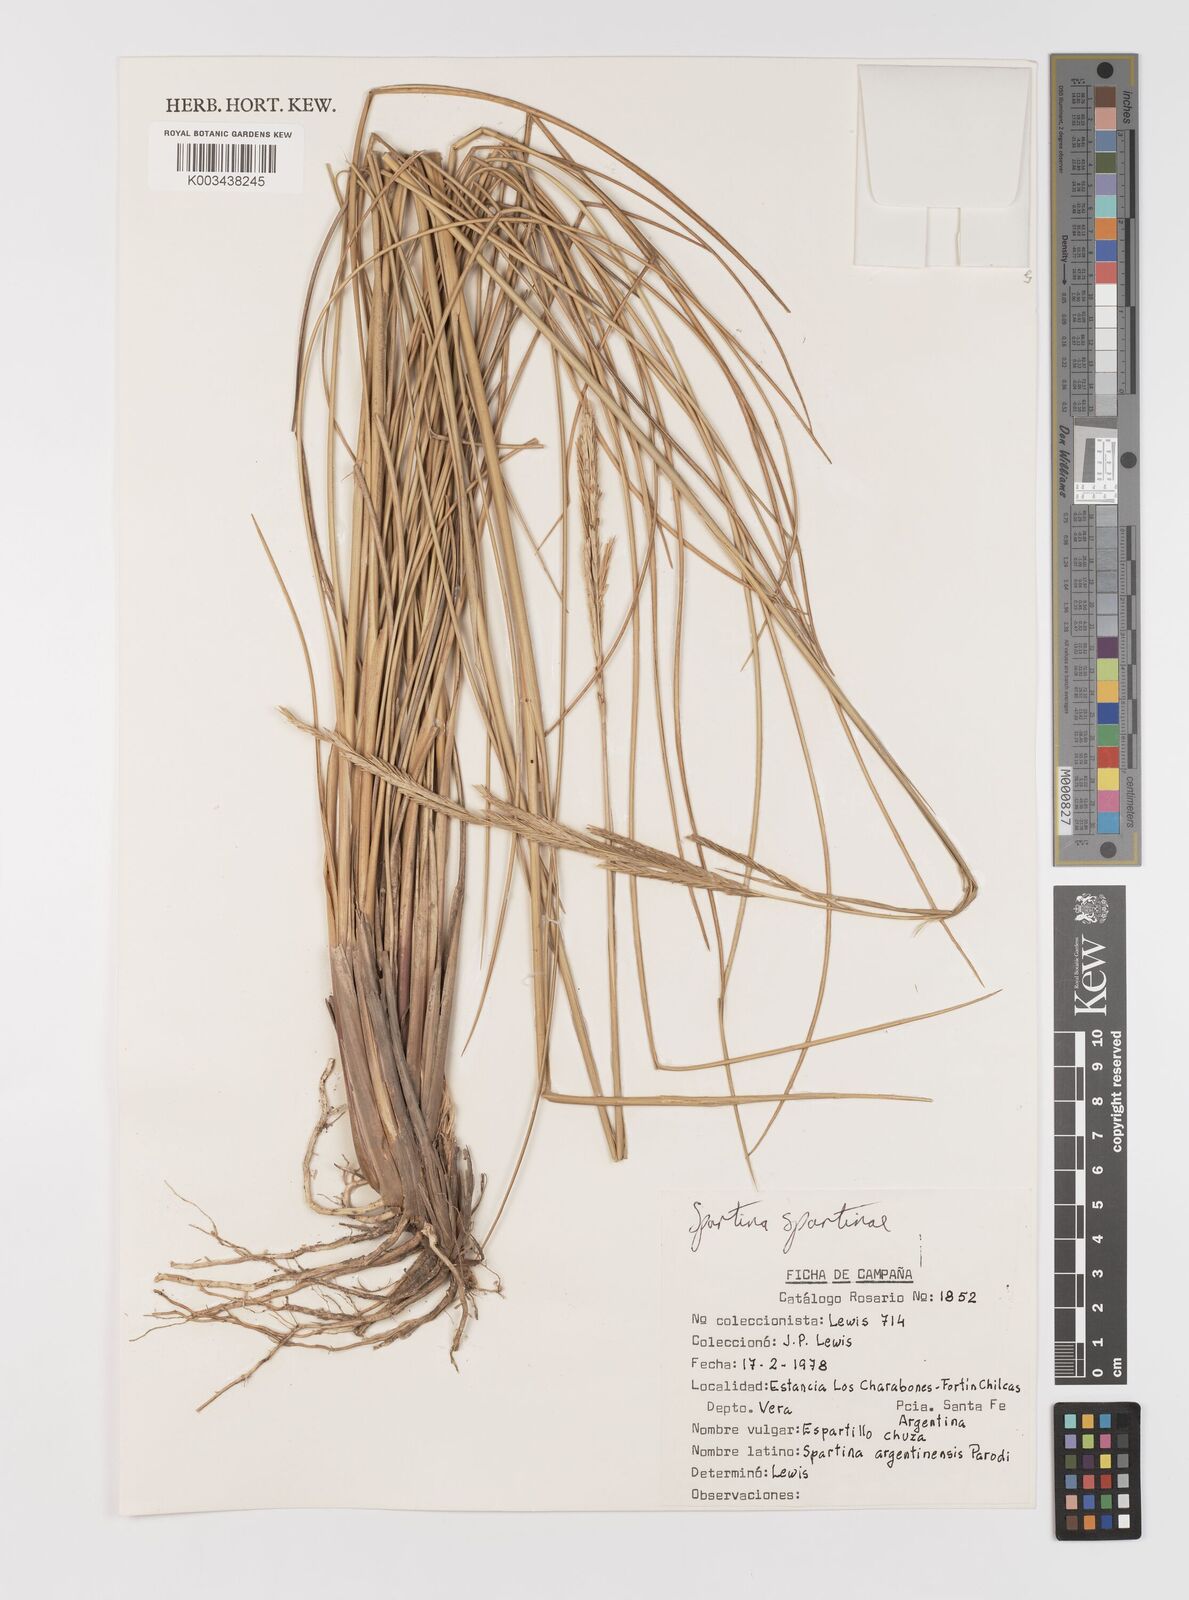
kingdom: Plantae
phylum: Tracheophyta
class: Liliopsida
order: Poales
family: Poaceae
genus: Sporobolus
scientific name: Sporobolus spartinae
